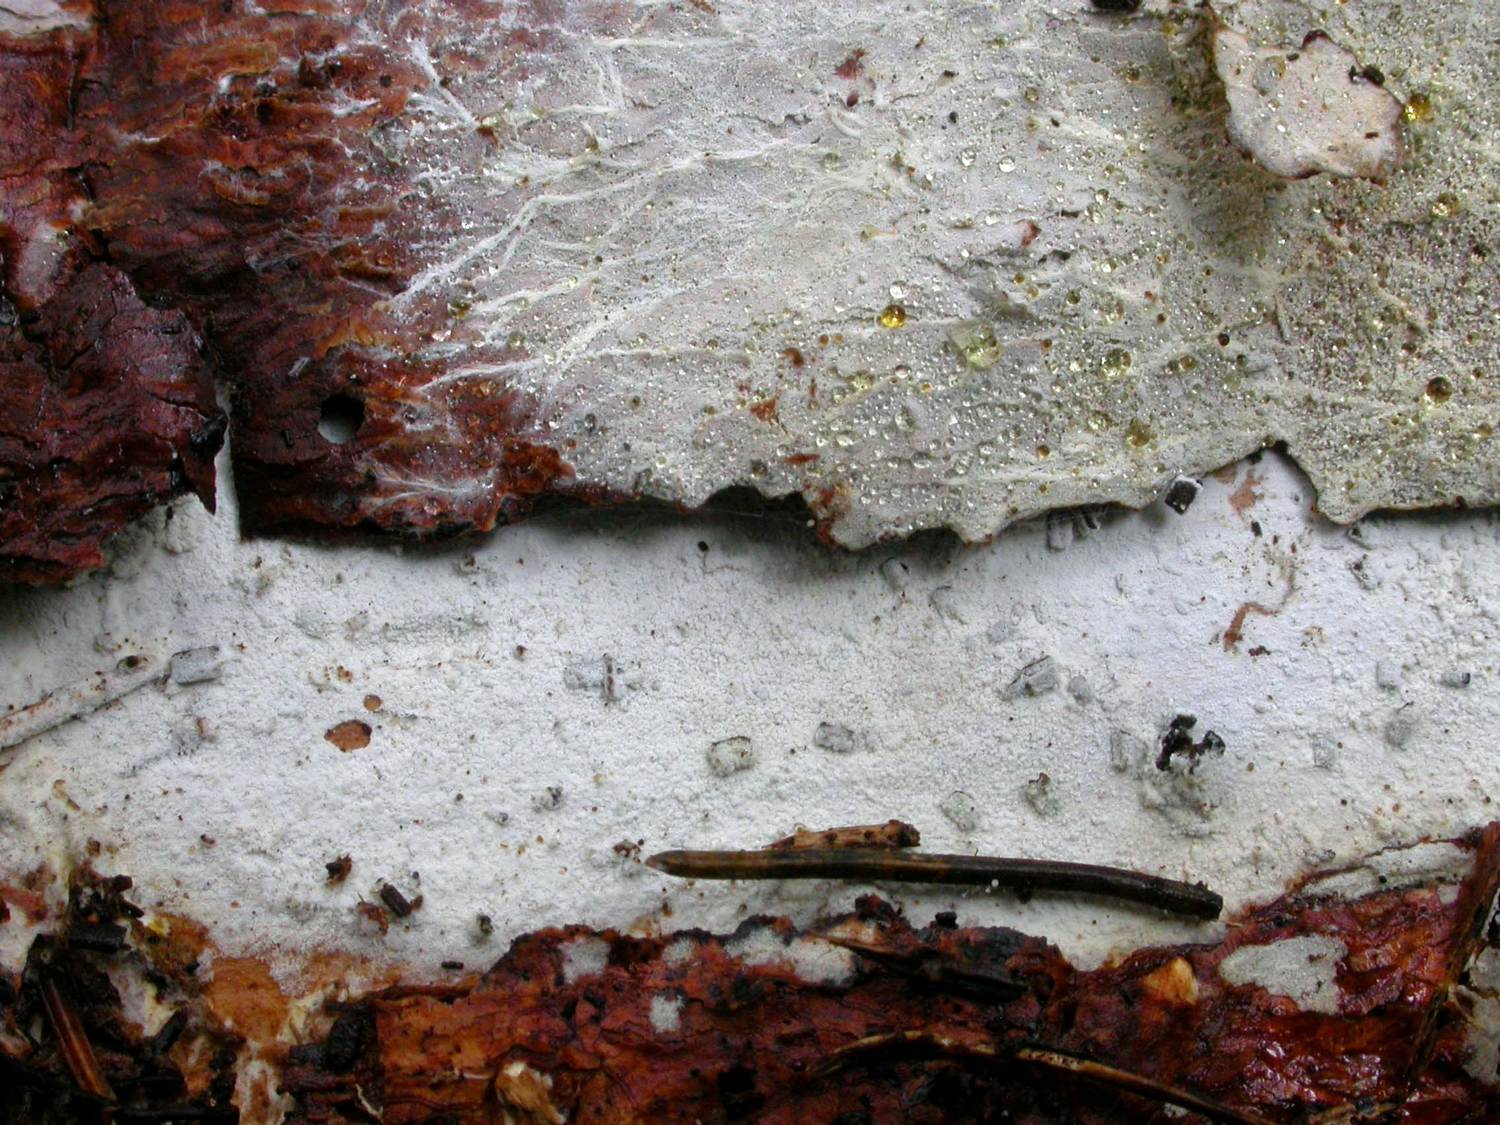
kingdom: Fungi
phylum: Basidiomycota
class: Agaricomycetes
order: Trechisporales
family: Sistotremataceae
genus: Trechispora
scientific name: Trechispora stellulata
